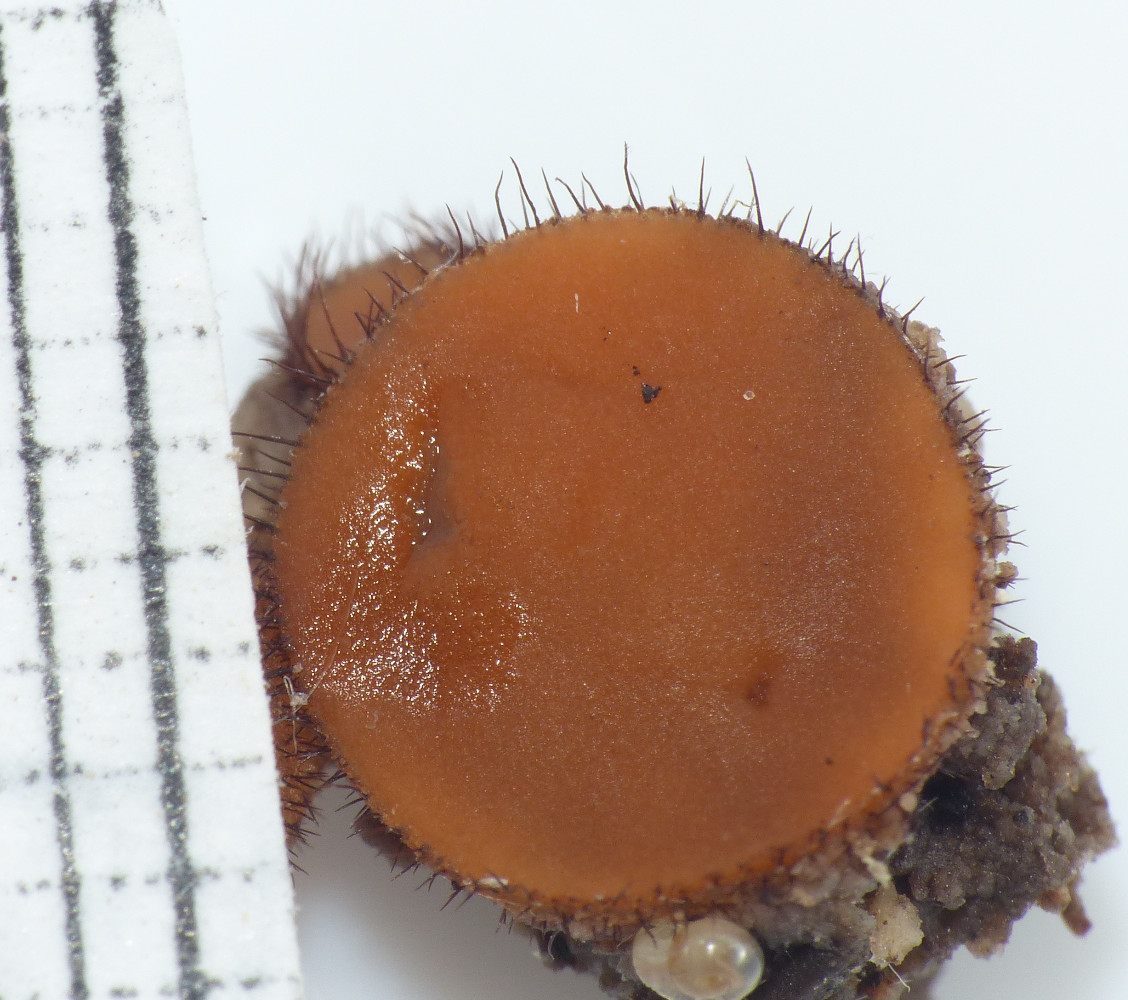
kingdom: Fungi
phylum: Ascomycota
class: Pezizomycetes
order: Pezizales
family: Pyronemataceae
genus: Scutellinia
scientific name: Scutellinia scutellata
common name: frynset skjoldbæger
